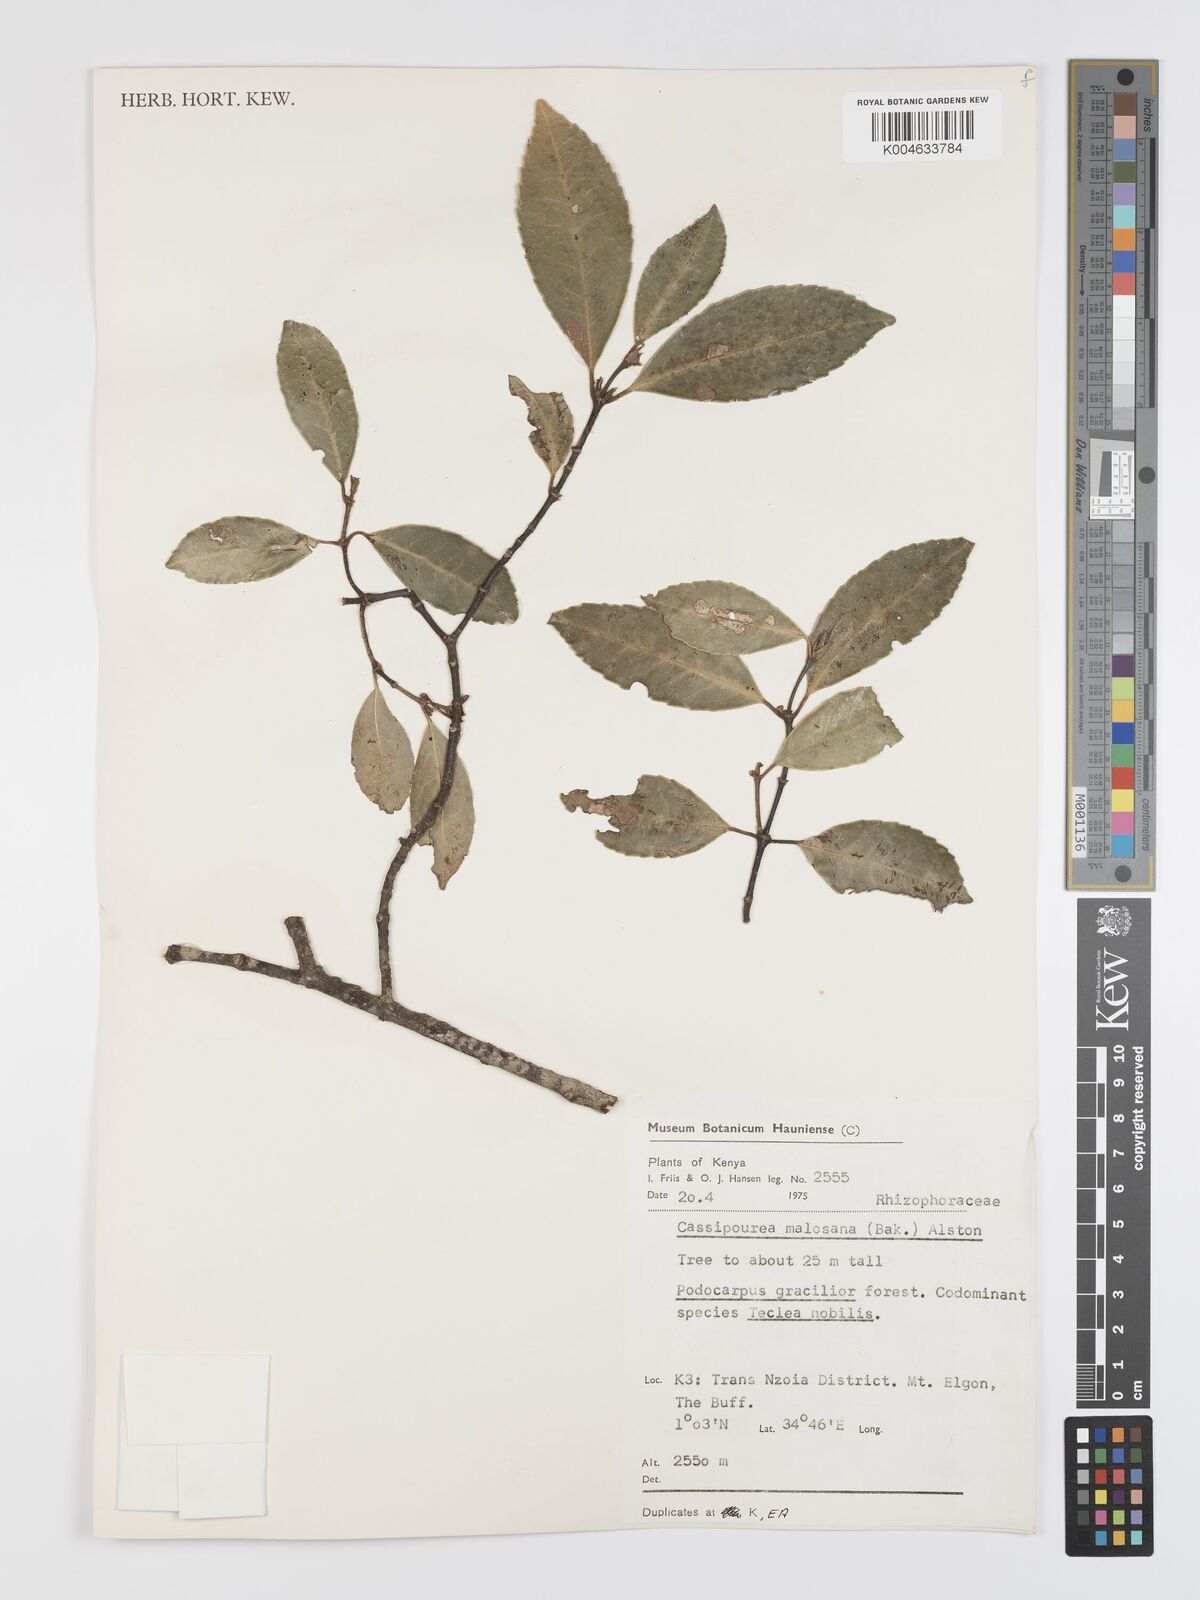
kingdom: Plantae
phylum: Tracheophyta
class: Magnoliopsida
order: Malpighiales
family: Rhizophoraceae
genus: Cassipourea
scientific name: Cassipourea malosana
